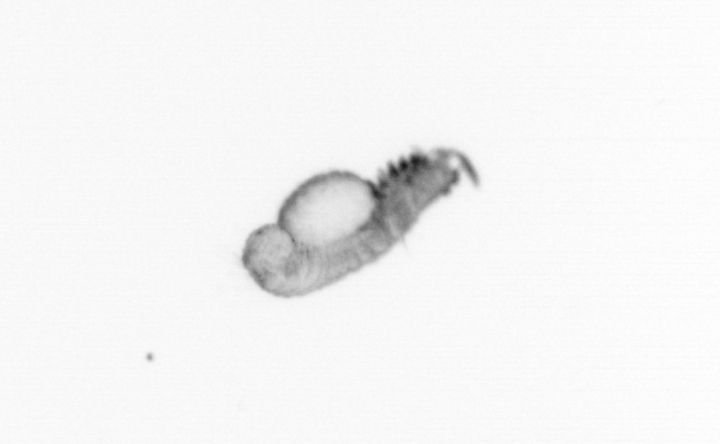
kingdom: Animalia
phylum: Annelida
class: Polychaeta
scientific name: Polychaeta
